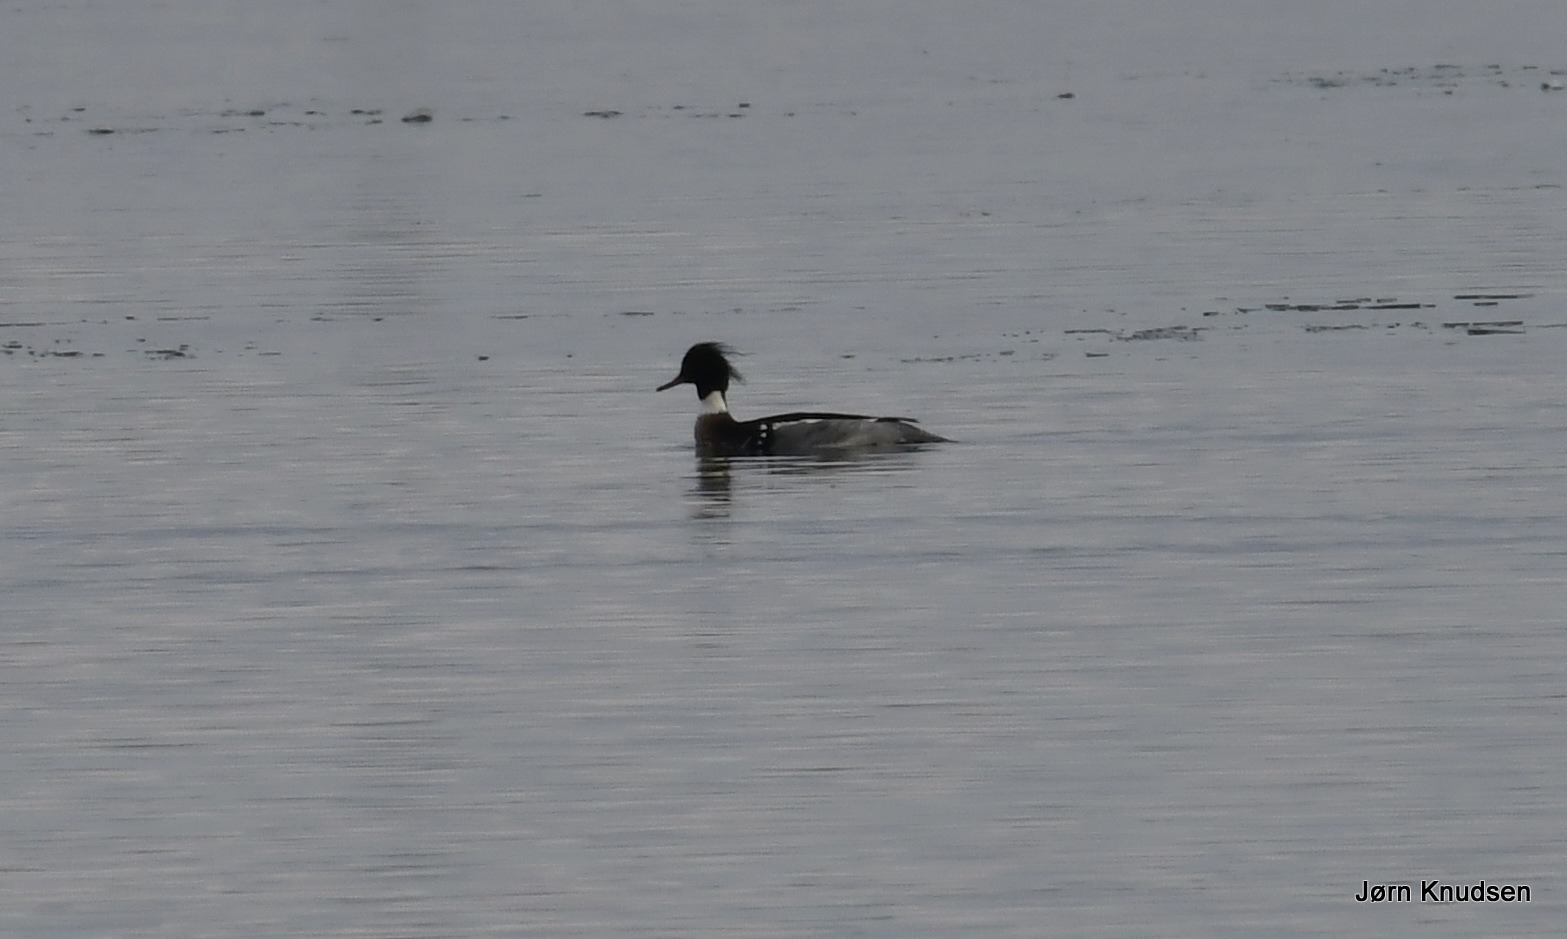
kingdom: Animalia
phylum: Chordata
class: Aves
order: Anseriformes
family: Anatidae
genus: Mergus
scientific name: Mergus serrator
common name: Toppet skallesluger
